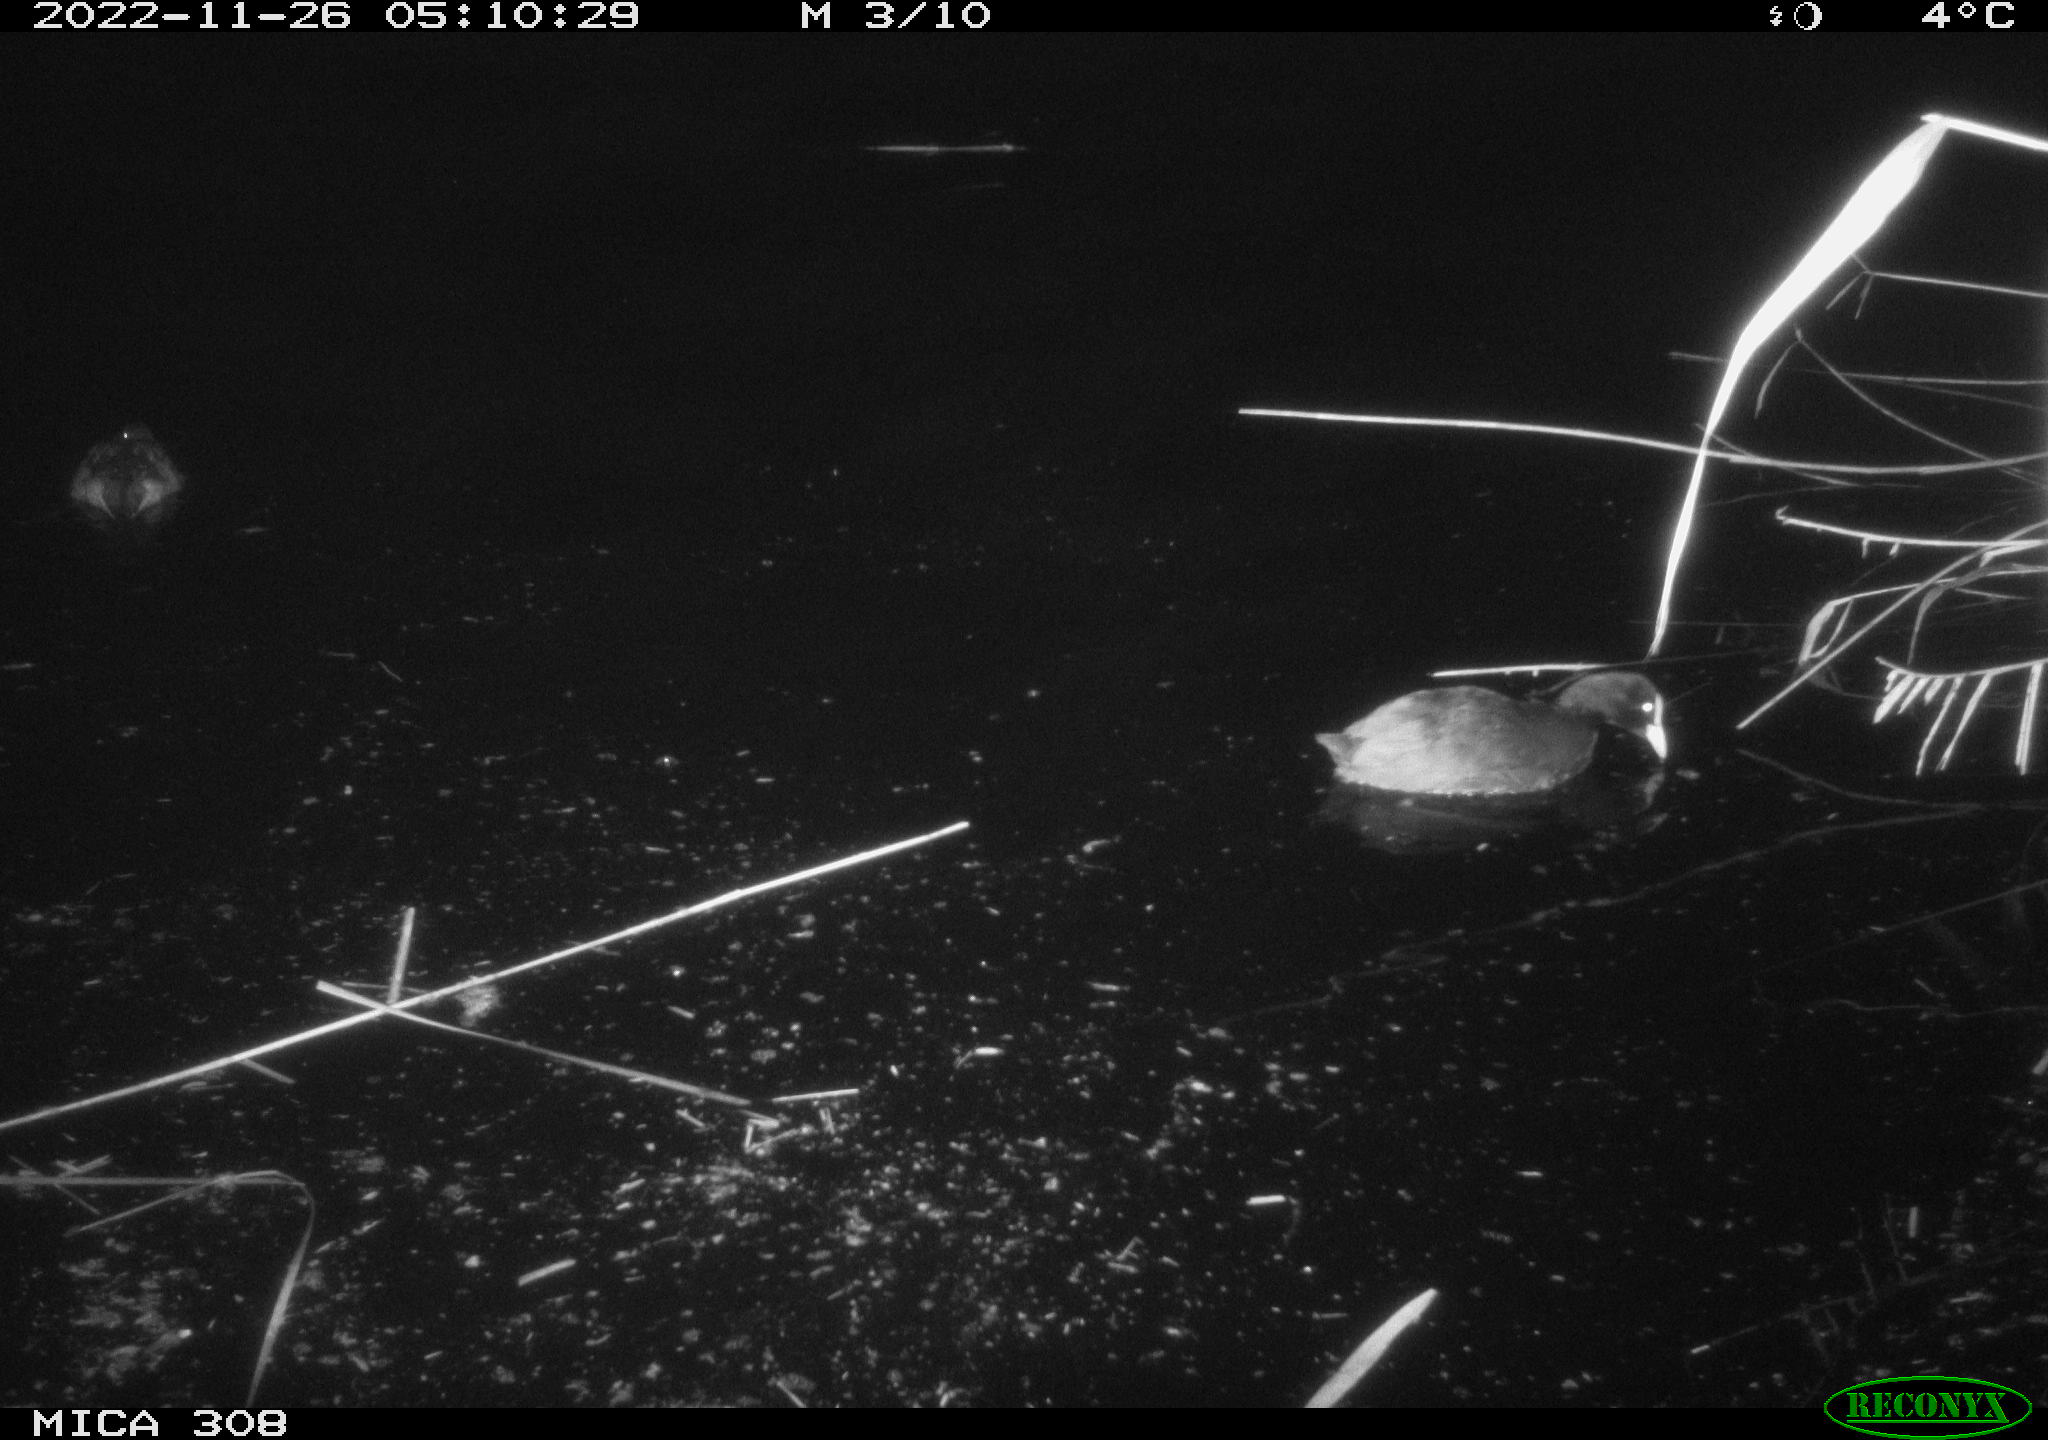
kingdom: Animalia
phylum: Chordata
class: Aves
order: Anseriformes
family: Anatidae
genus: Anas
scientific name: Anas
